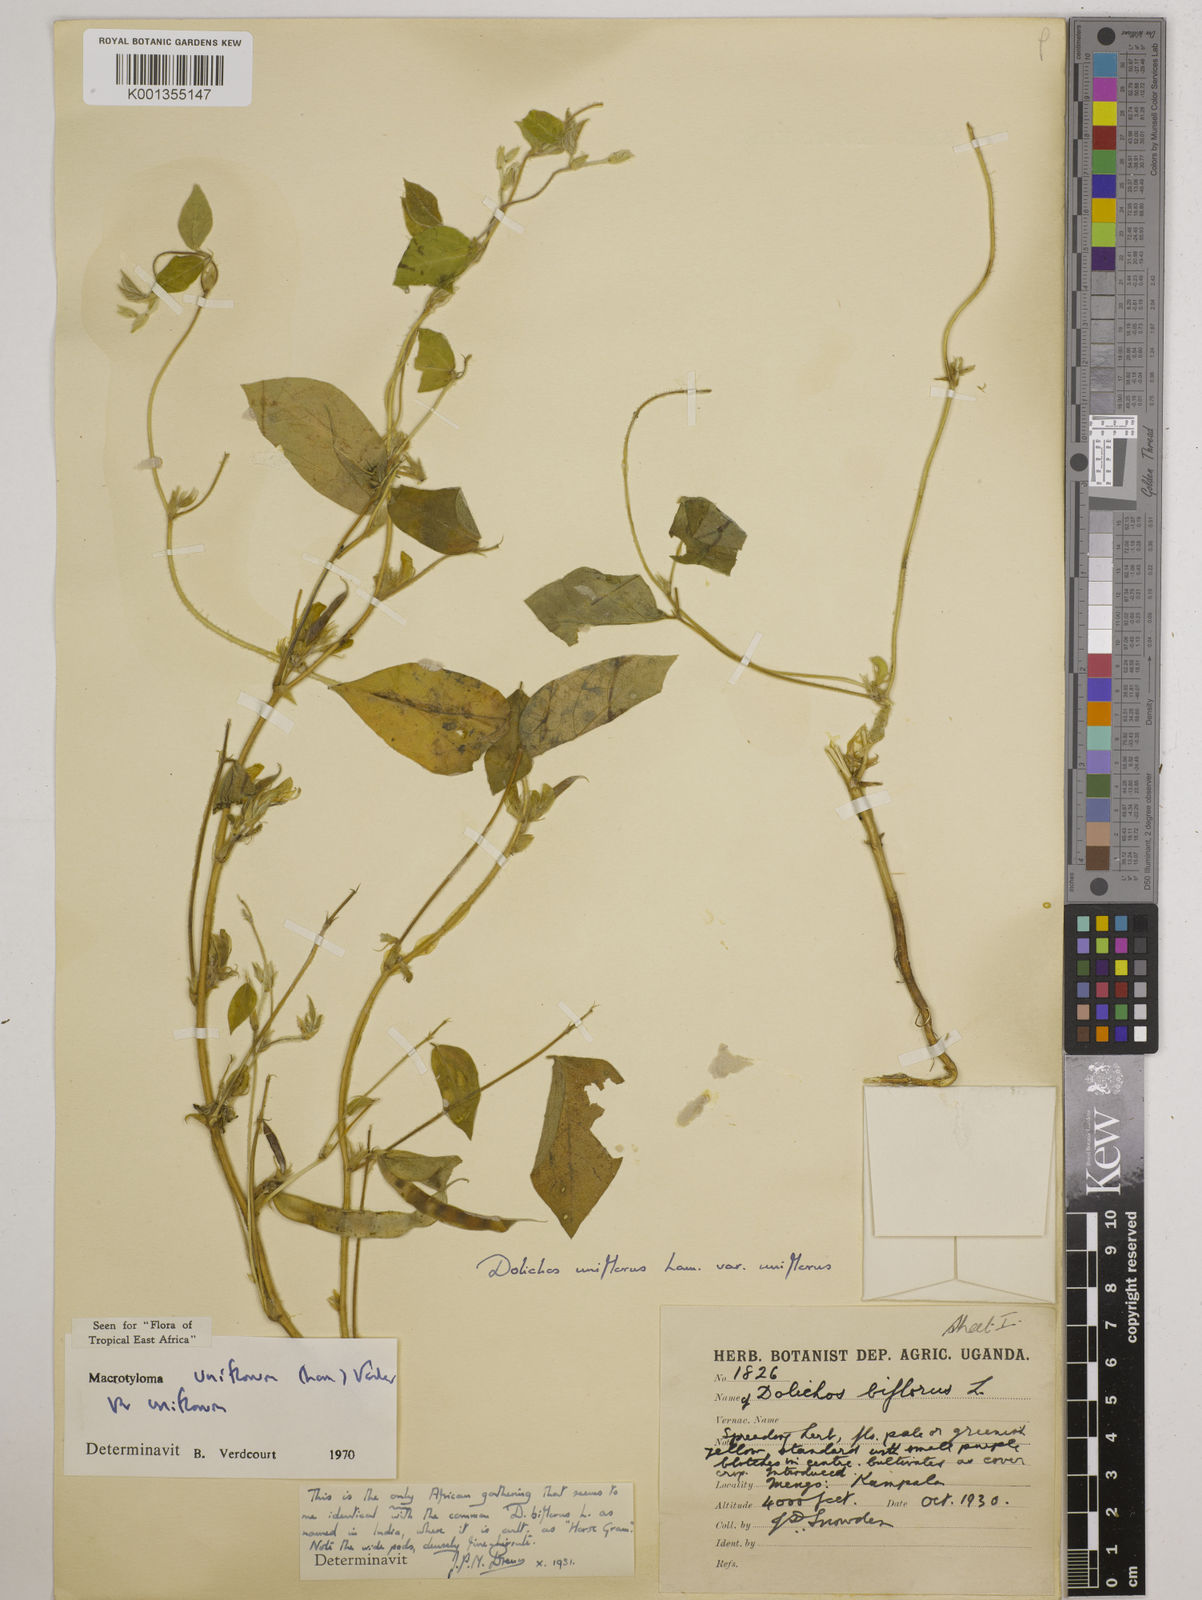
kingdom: Plantae
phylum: Tracheophyta
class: Magnoliopsida
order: Fabales
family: Fabaceae
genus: Macrotyloma
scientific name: Macrotyloma uniflorum
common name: Horse gram
